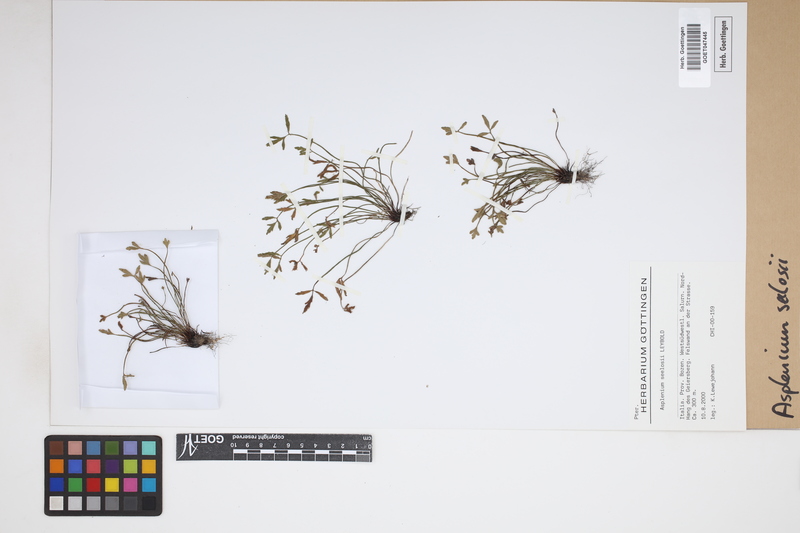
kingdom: Plantae
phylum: Tracheophyta
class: Polypodiopsida
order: Polypodiales
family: Aspleniaceae
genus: Asplenium
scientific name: Asplenium seelosii
